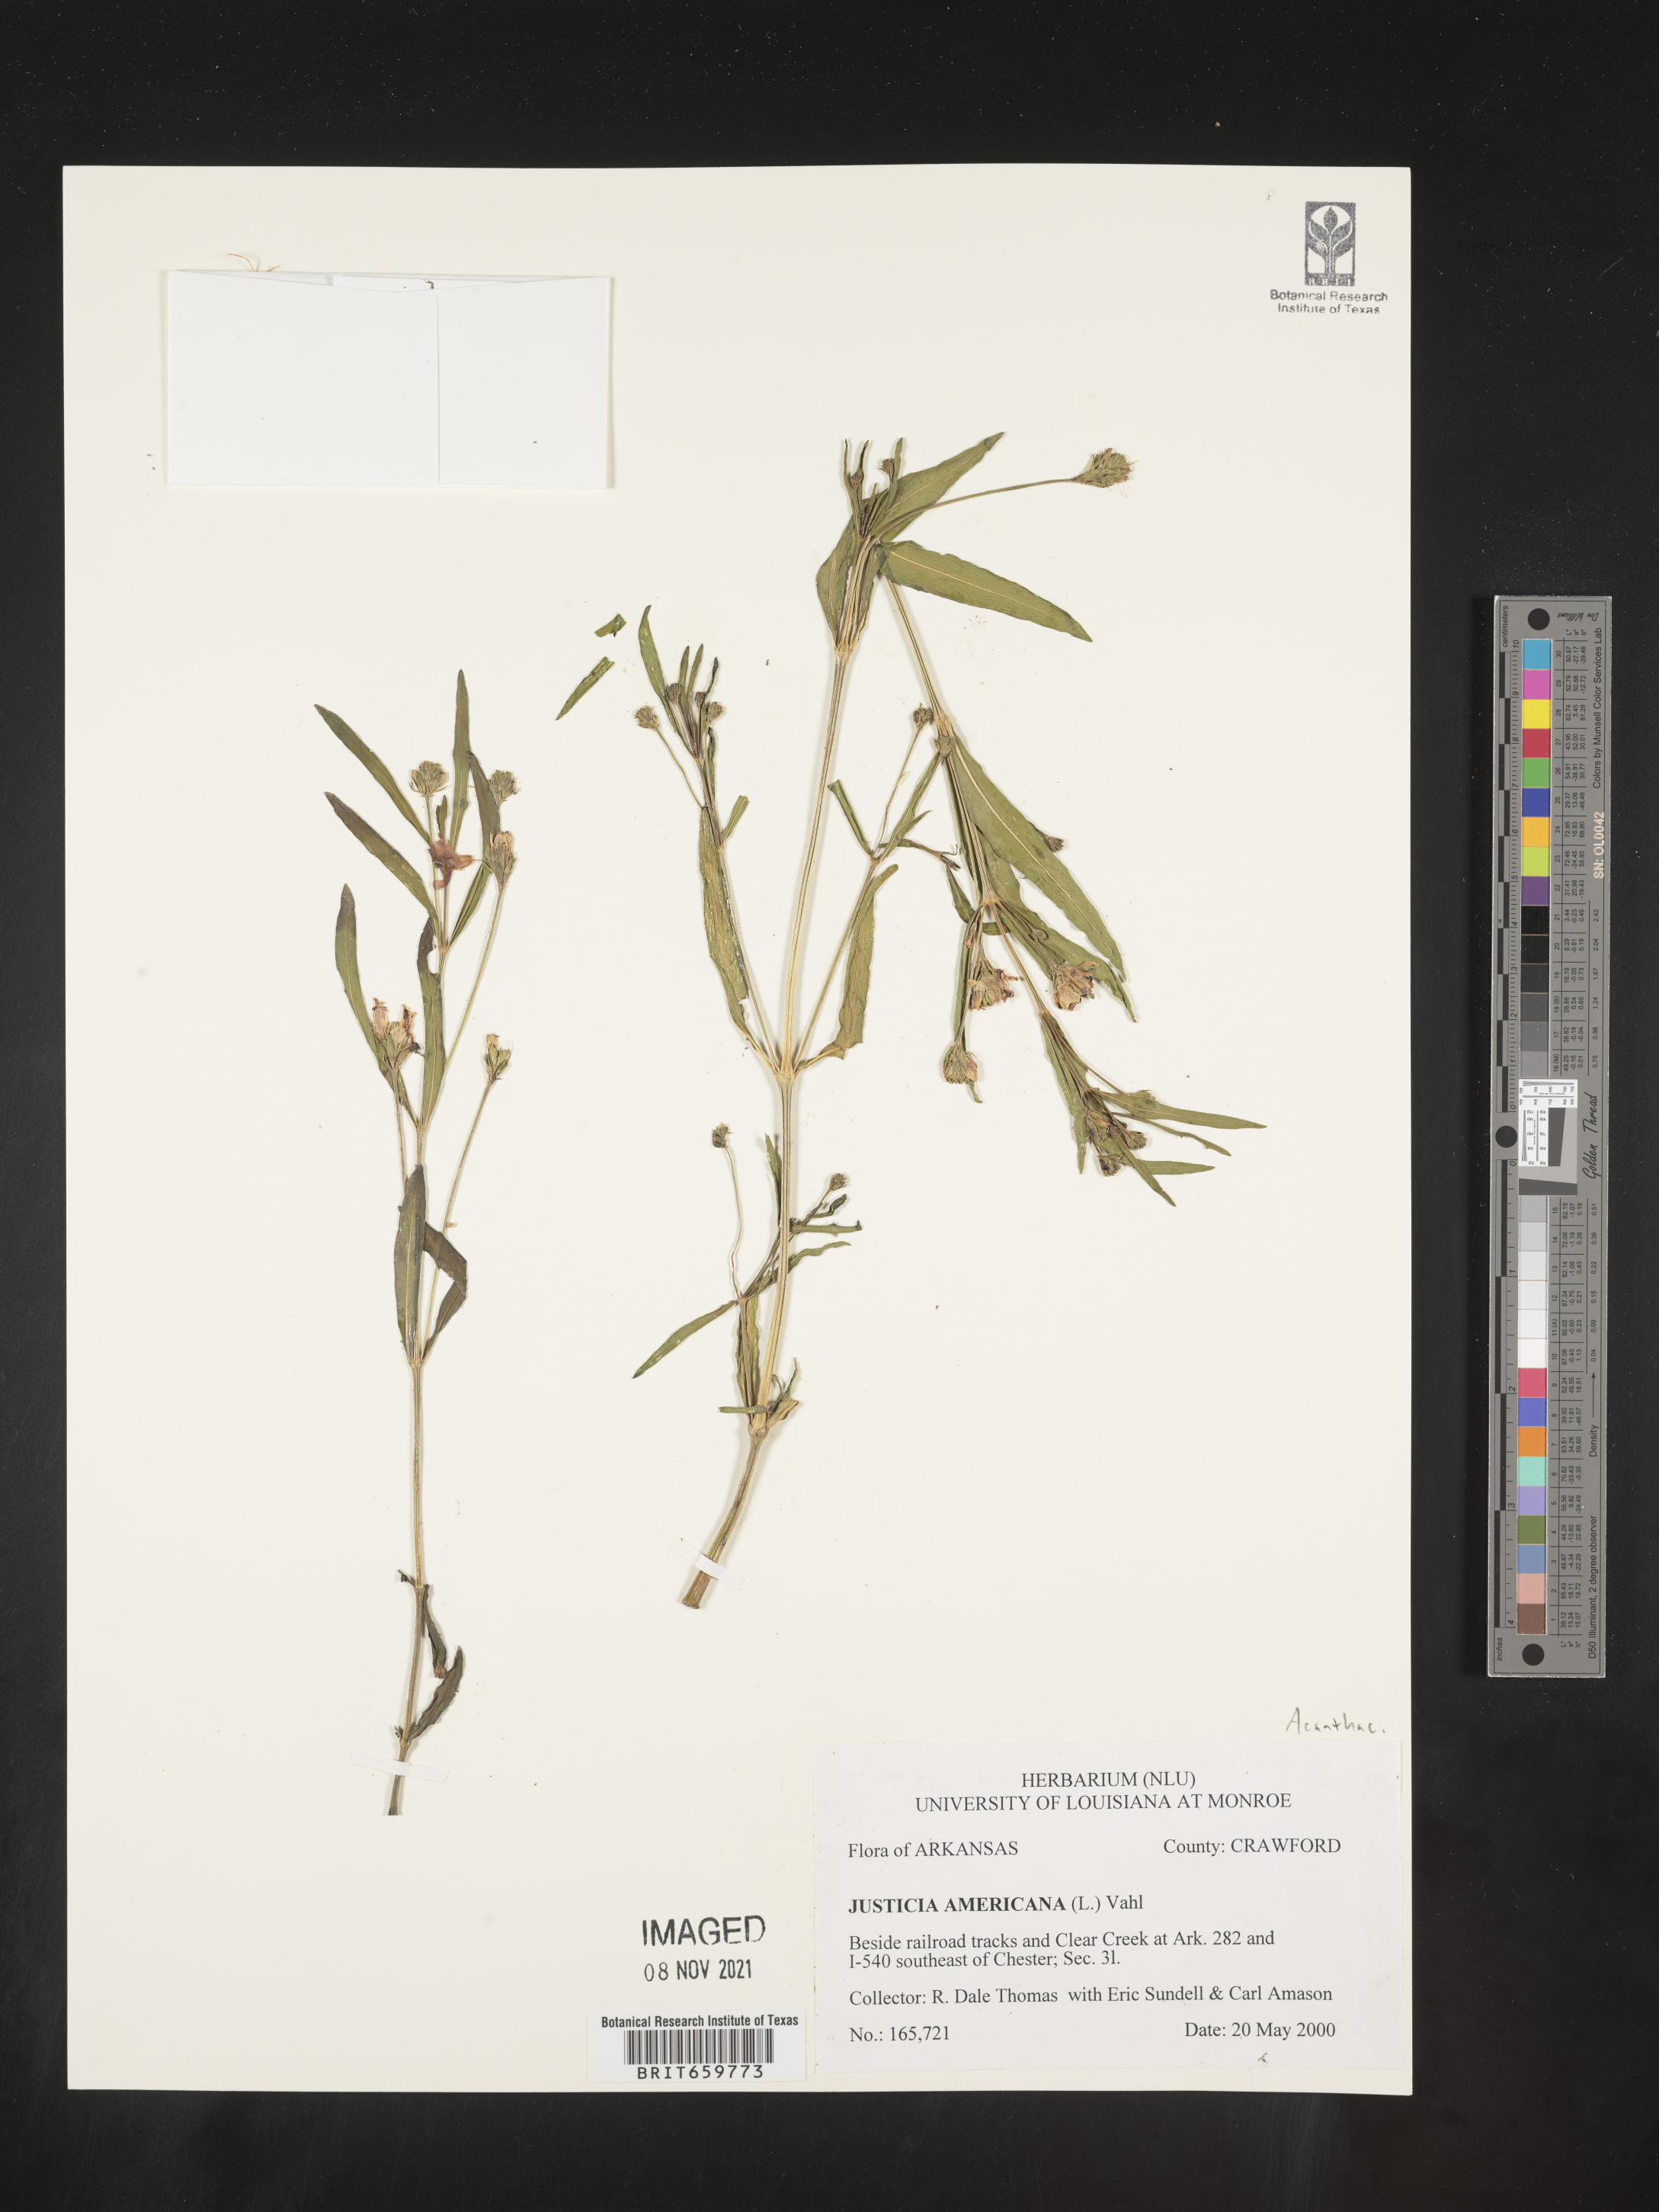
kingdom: Plantae
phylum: Tracheophyta
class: Magnoliopsida
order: Lamiales
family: Acanthaceae
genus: Dianthera
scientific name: Dianthera americana
